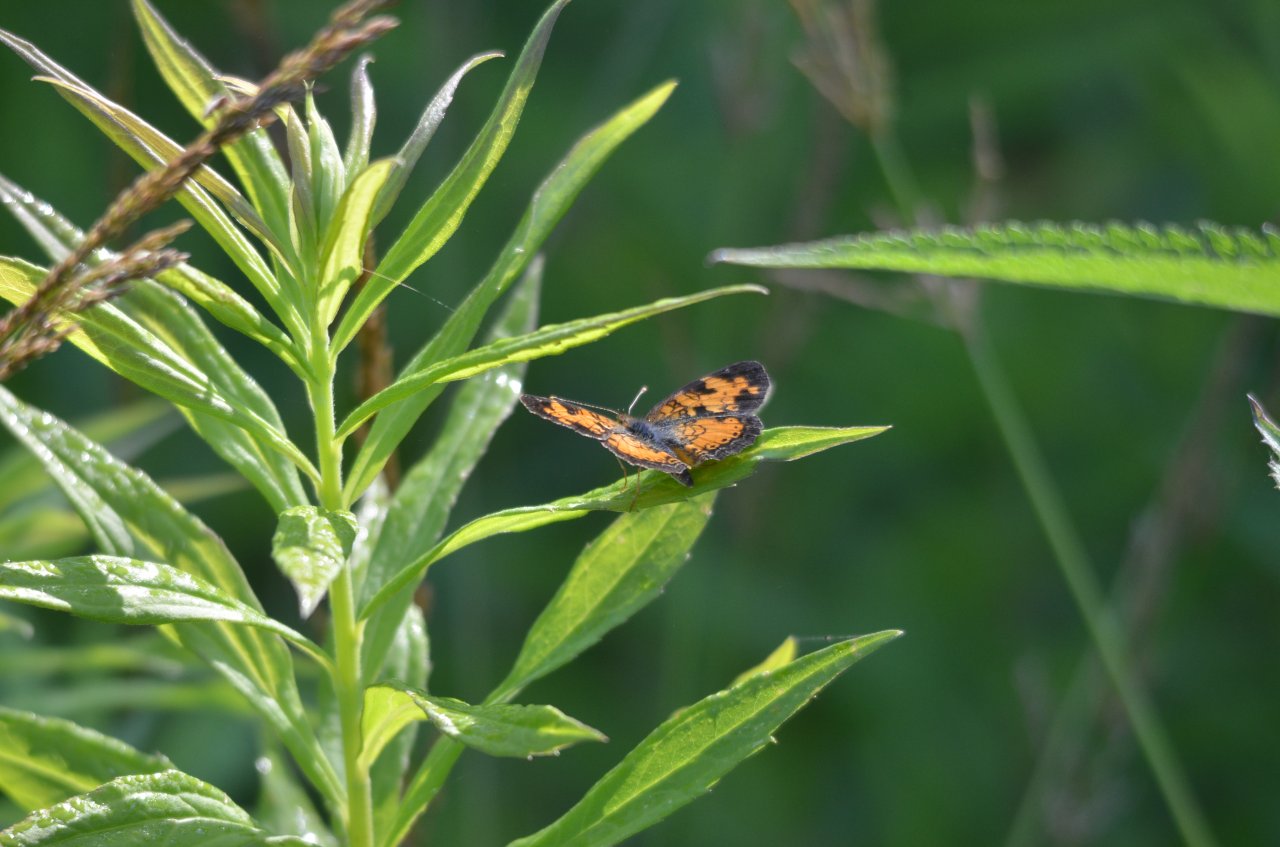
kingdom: Animalia
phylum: Arthropoda
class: Insecta
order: Lepidoptera
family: Nymphalidae
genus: Phyciodes
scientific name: Phyciodes tharos
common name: Northern Crescent
